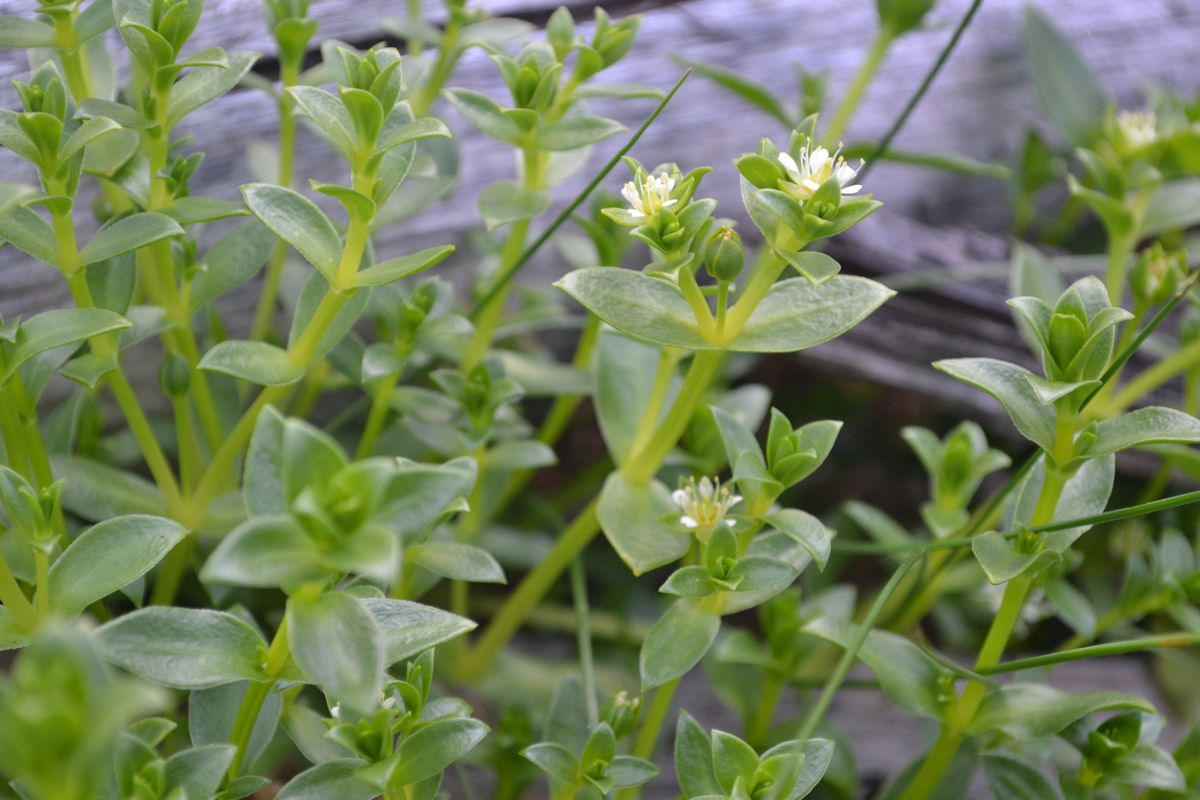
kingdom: Plantae
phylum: Tracheophyta
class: Magnoliopsida
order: Caryophyllales
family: Caryophyllaceae
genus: Honckenya
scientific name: Honckenya peploides
